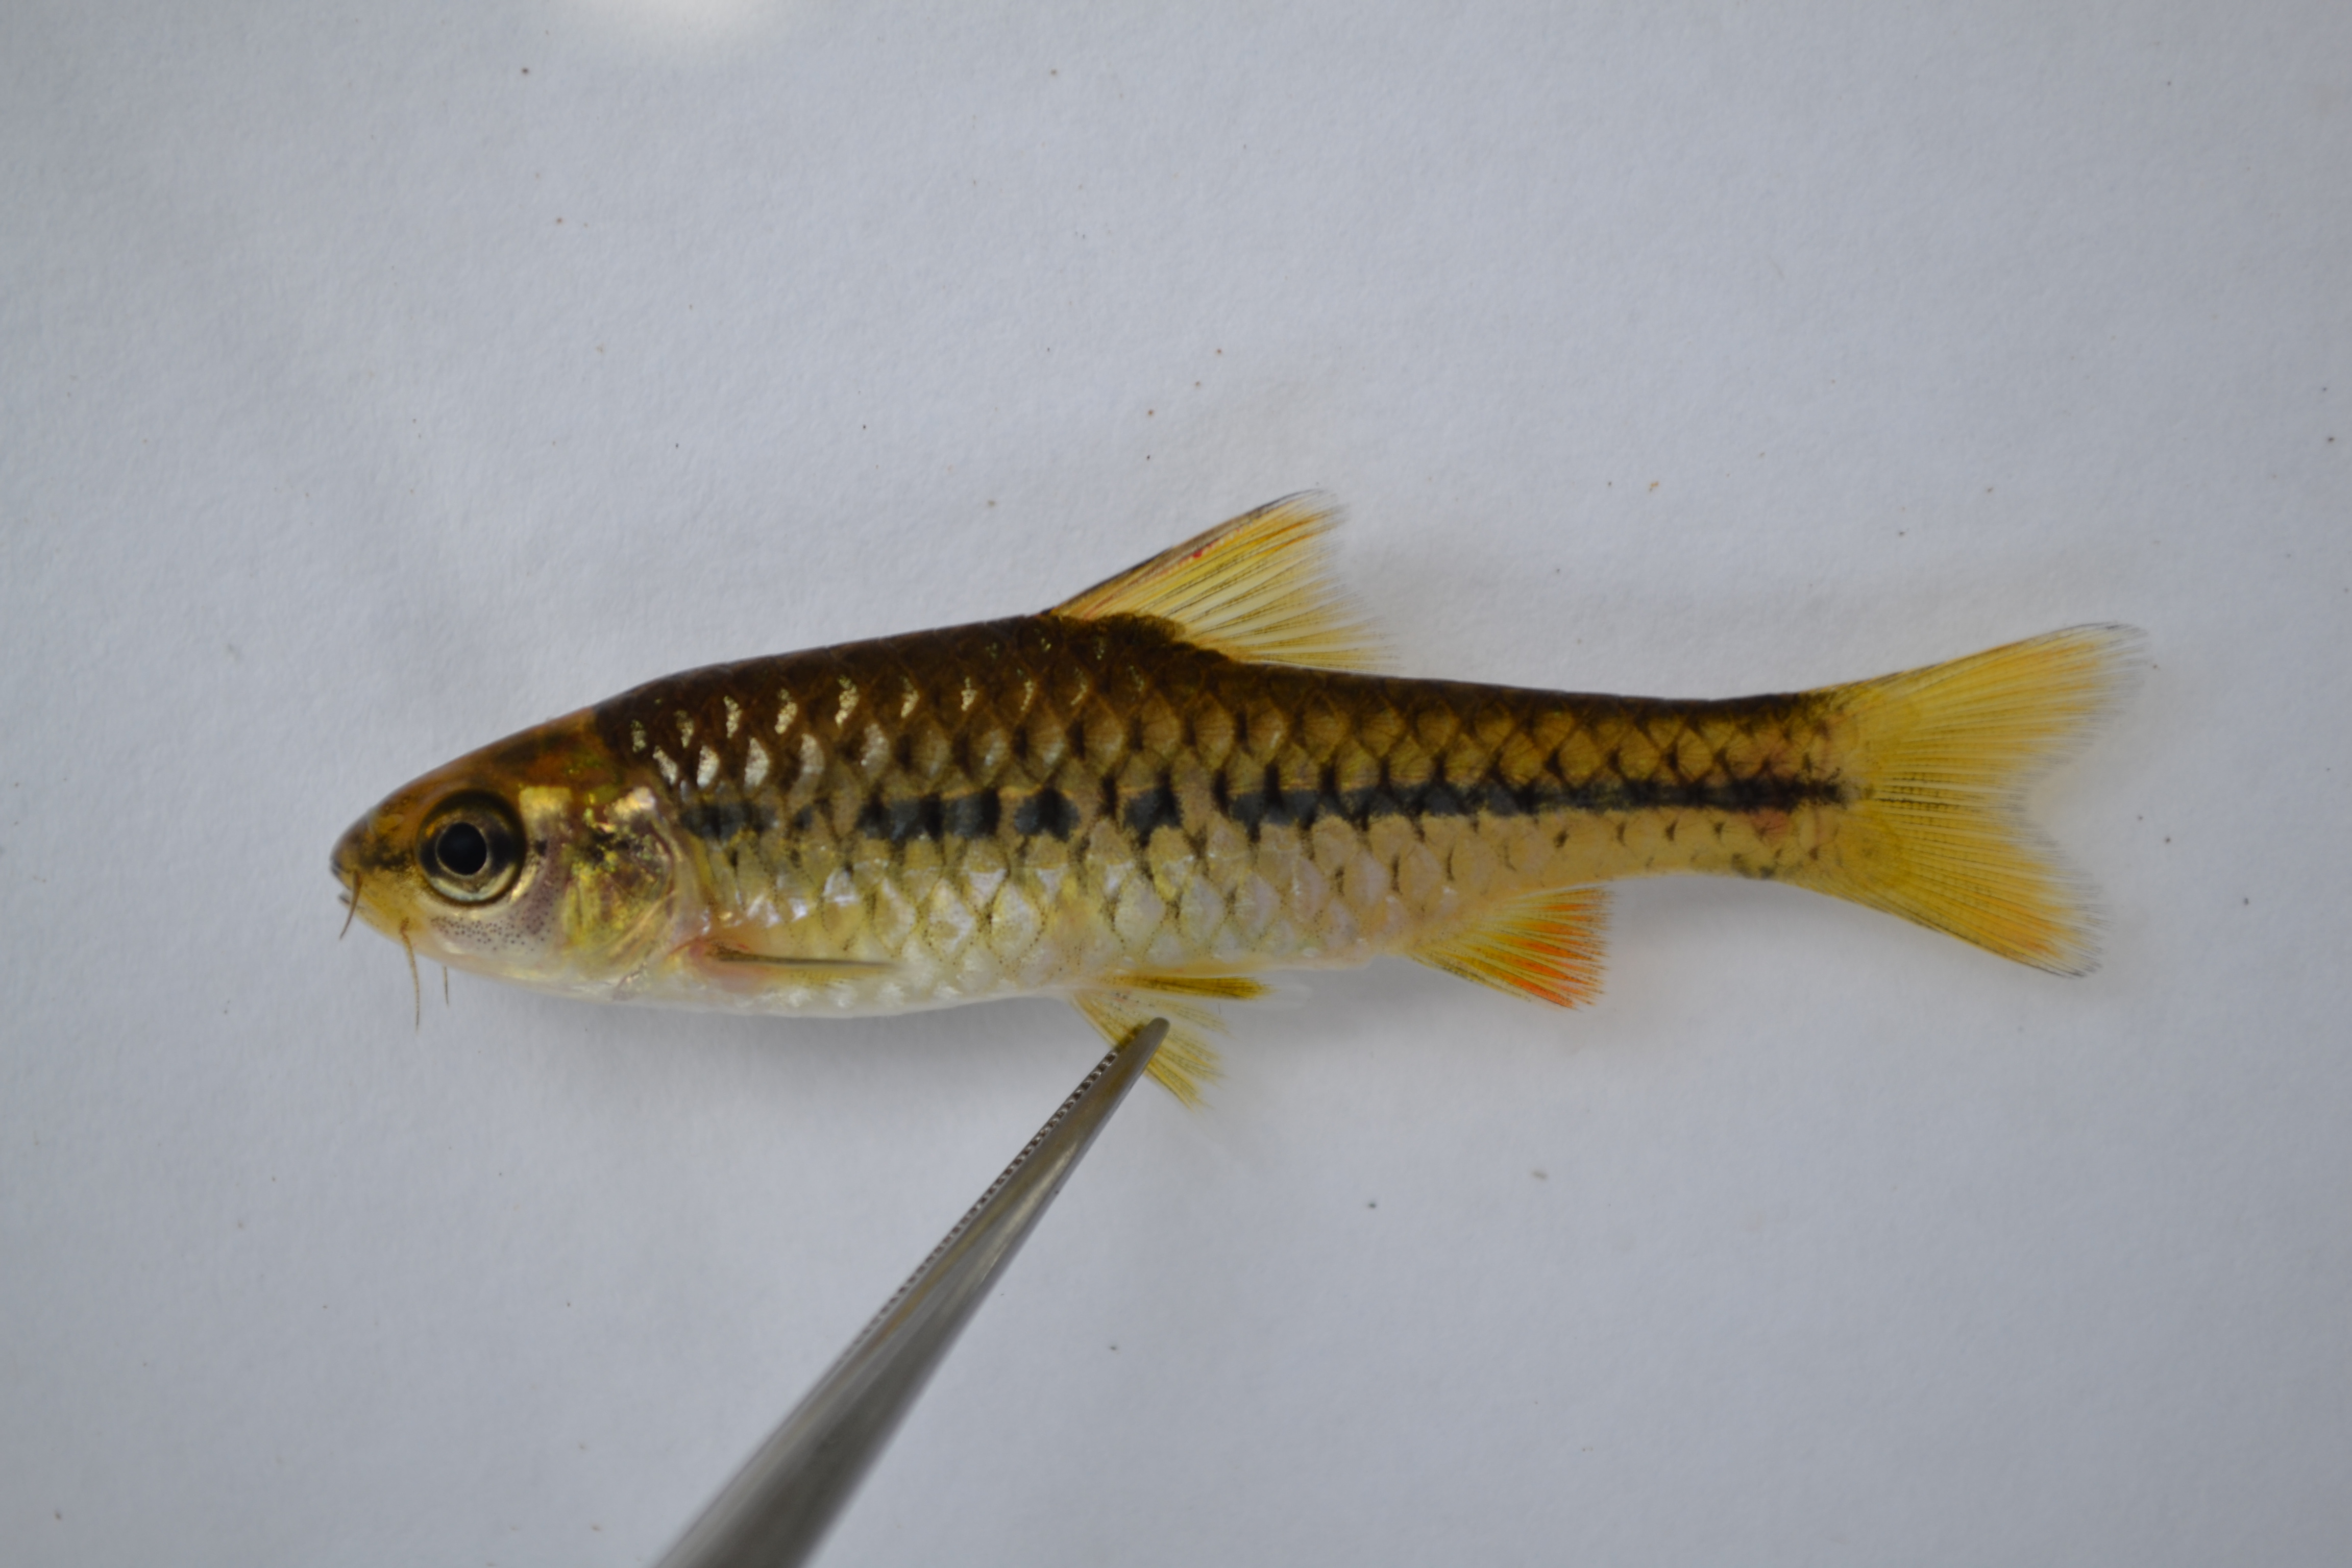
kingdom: Animalia
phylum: Chordata
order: Cypriniformes
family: Cyprinidae
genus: Enteromius
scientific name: Enteromius eutaenia
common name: Orangefin barb
